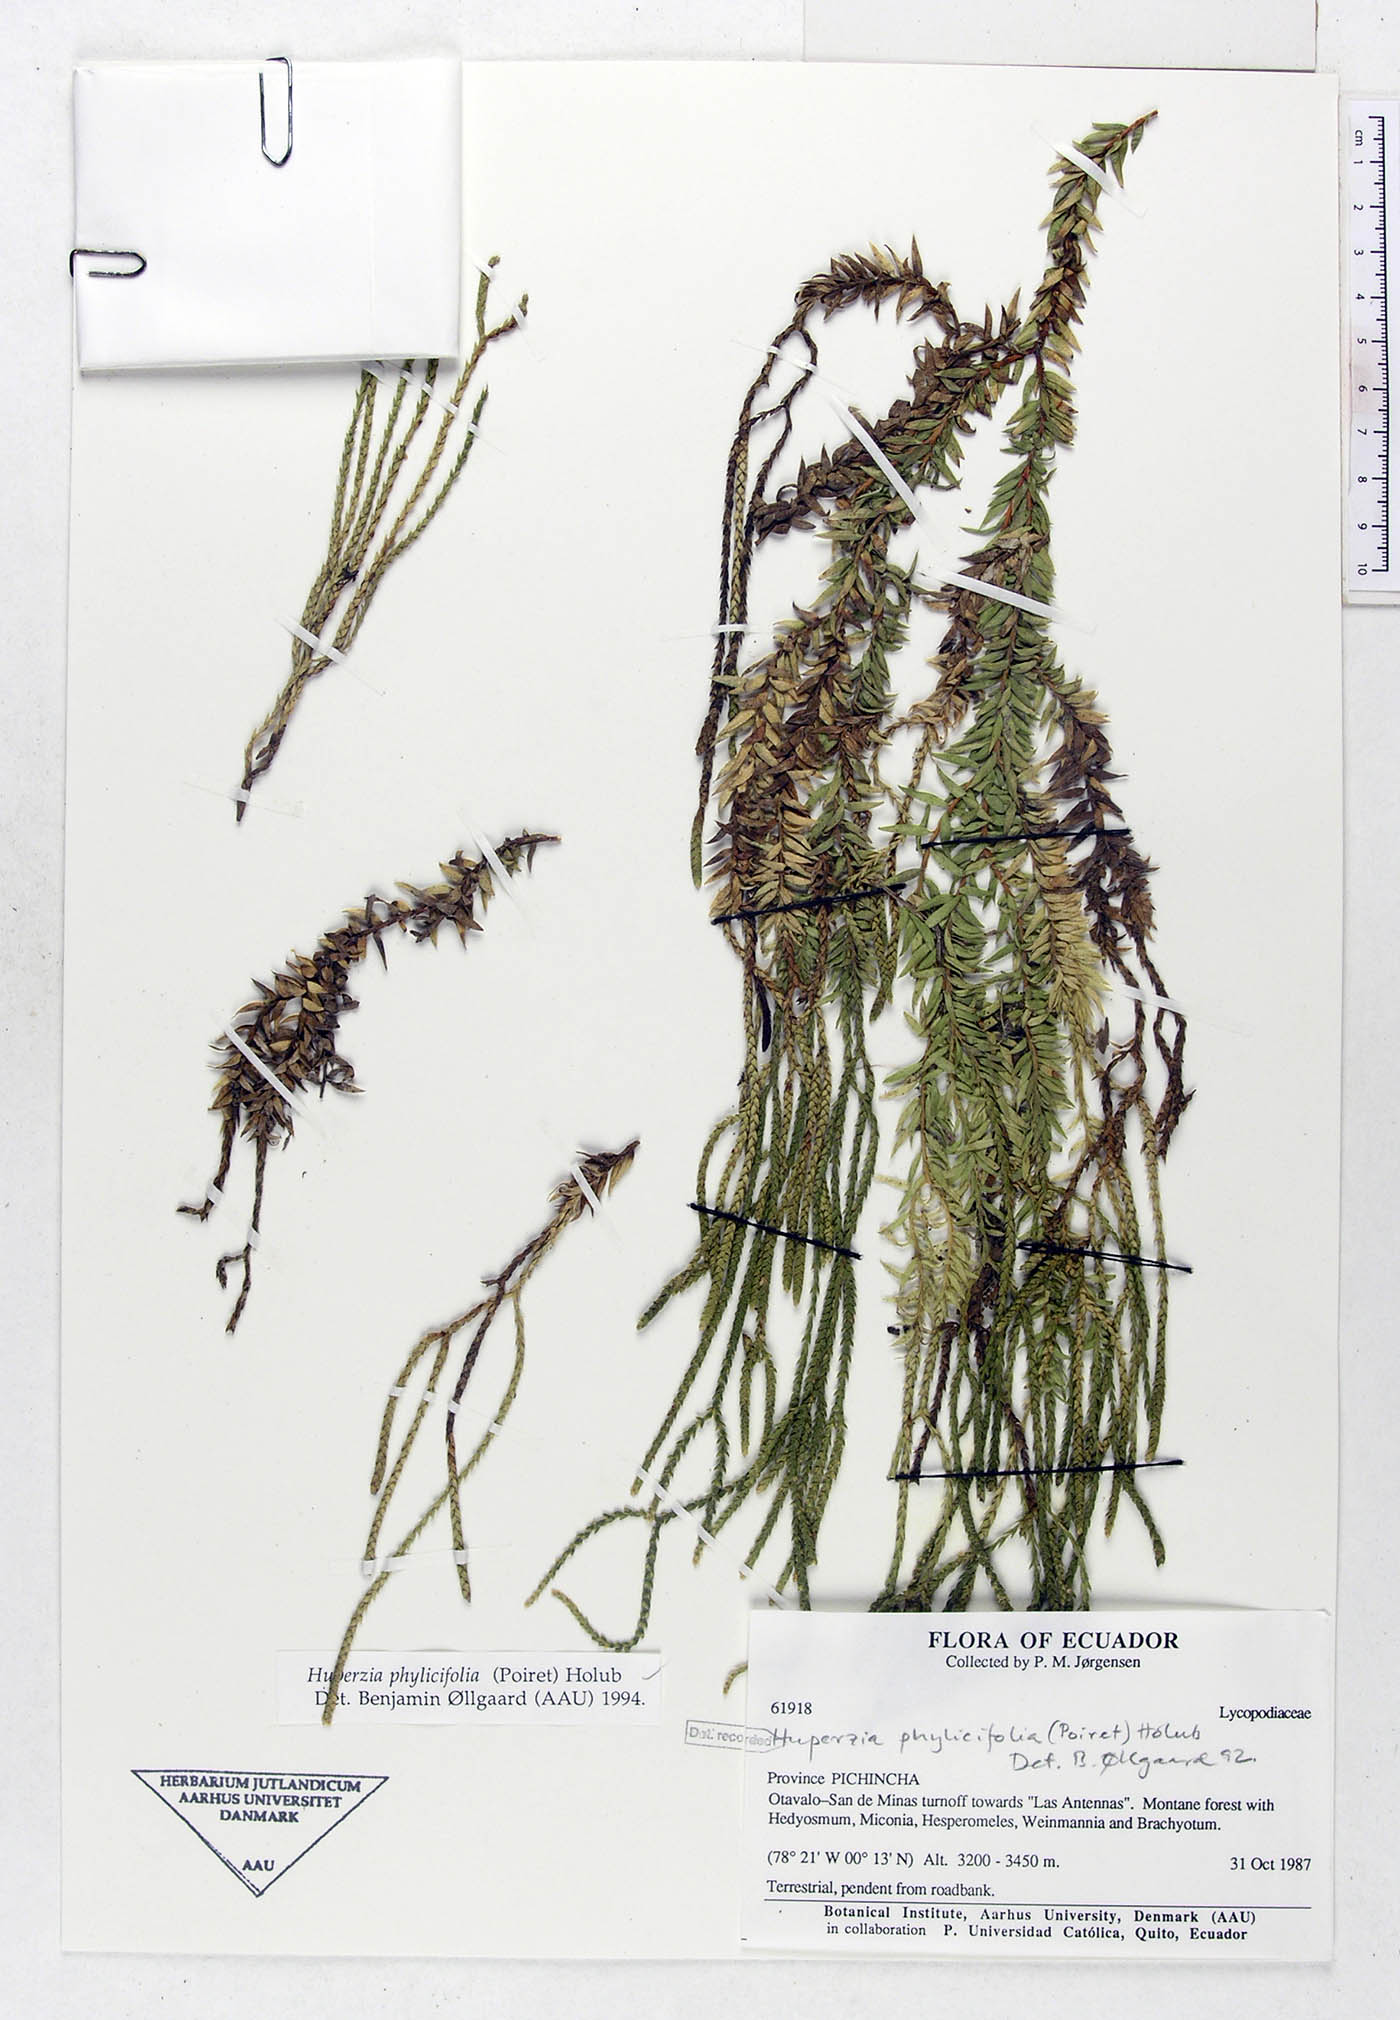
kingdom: Plantae
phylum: Tracheophyta
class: Lycopodiopsida
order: Lycopodiales
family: Lycopodiaceae
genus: Phlegmariurus
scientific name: Phlegmariurus phylicifolius
